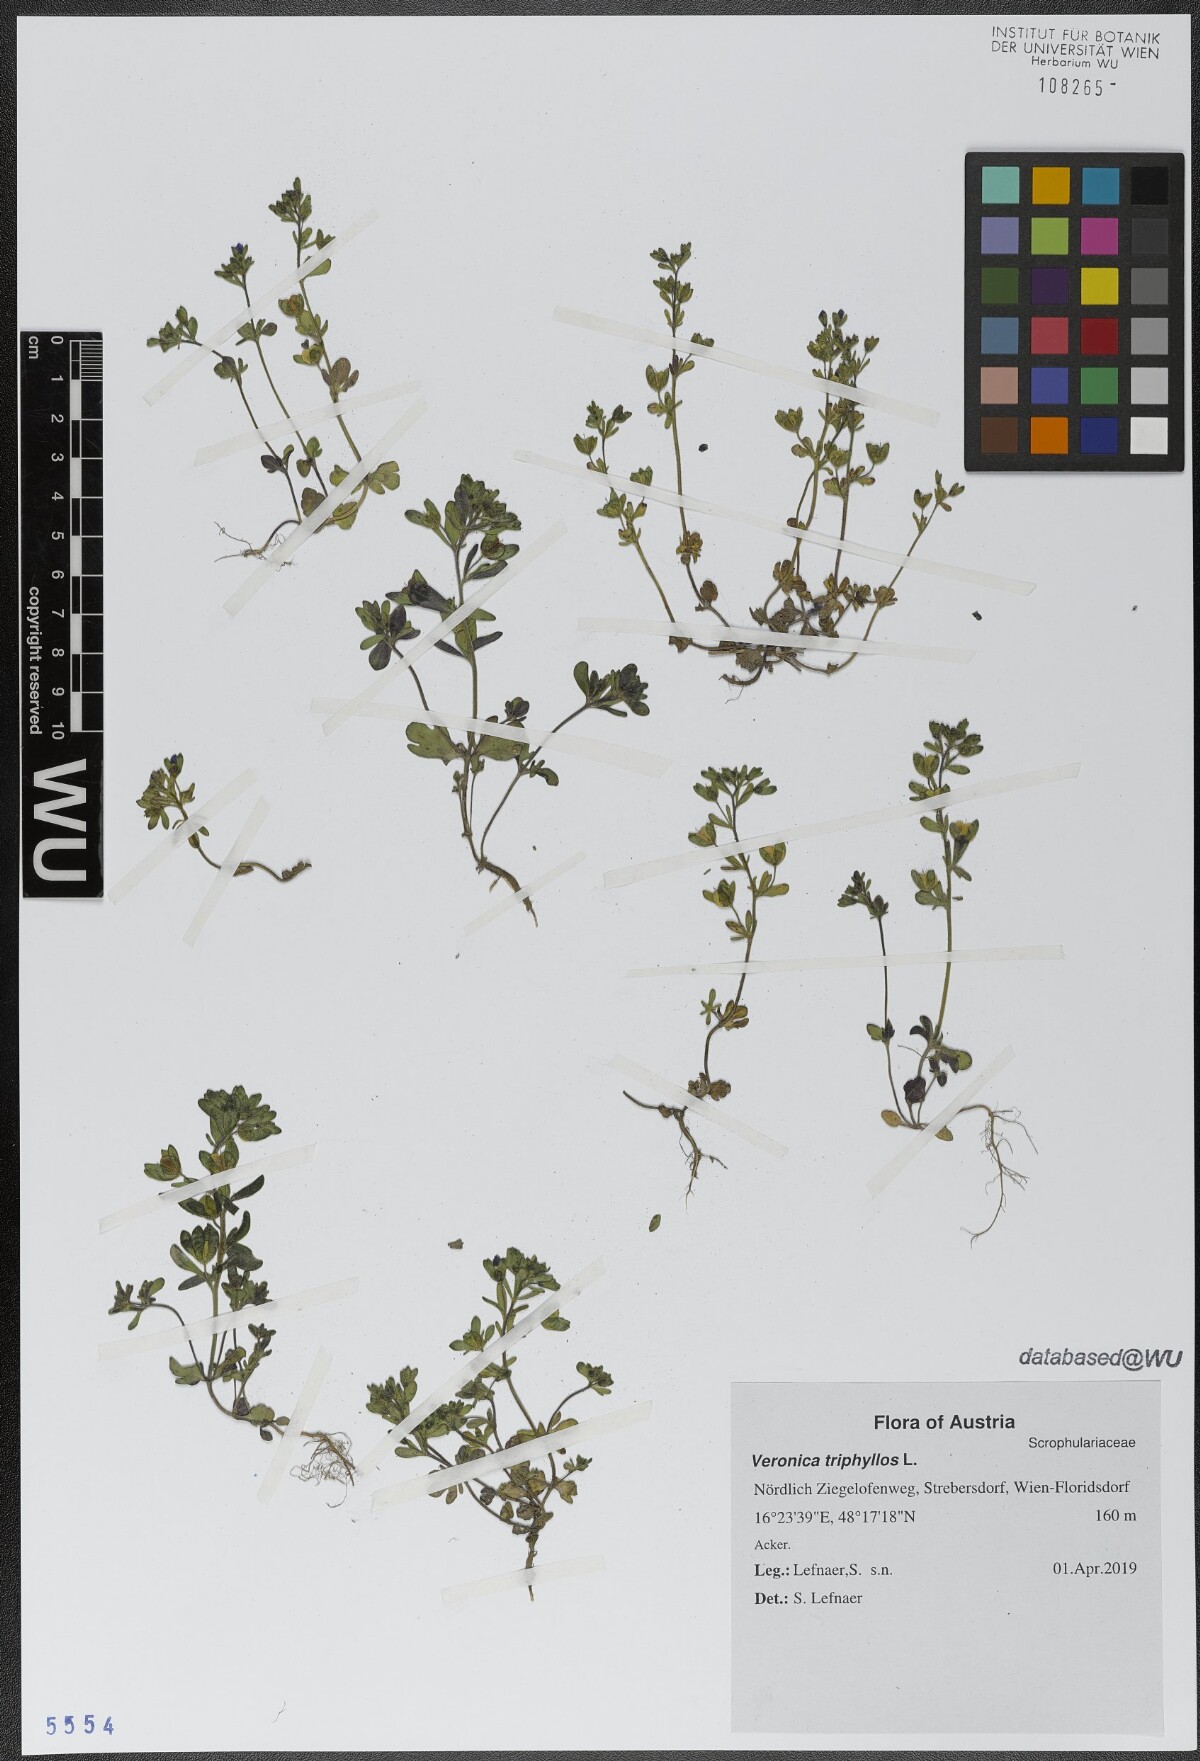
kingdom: Plantae
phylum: Tracheophyta
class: Magnoliopsida
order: Lamiales
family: Plantaginaceae
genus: Veronica
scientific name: Veronica triphyllos
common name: Fingered speedwell
